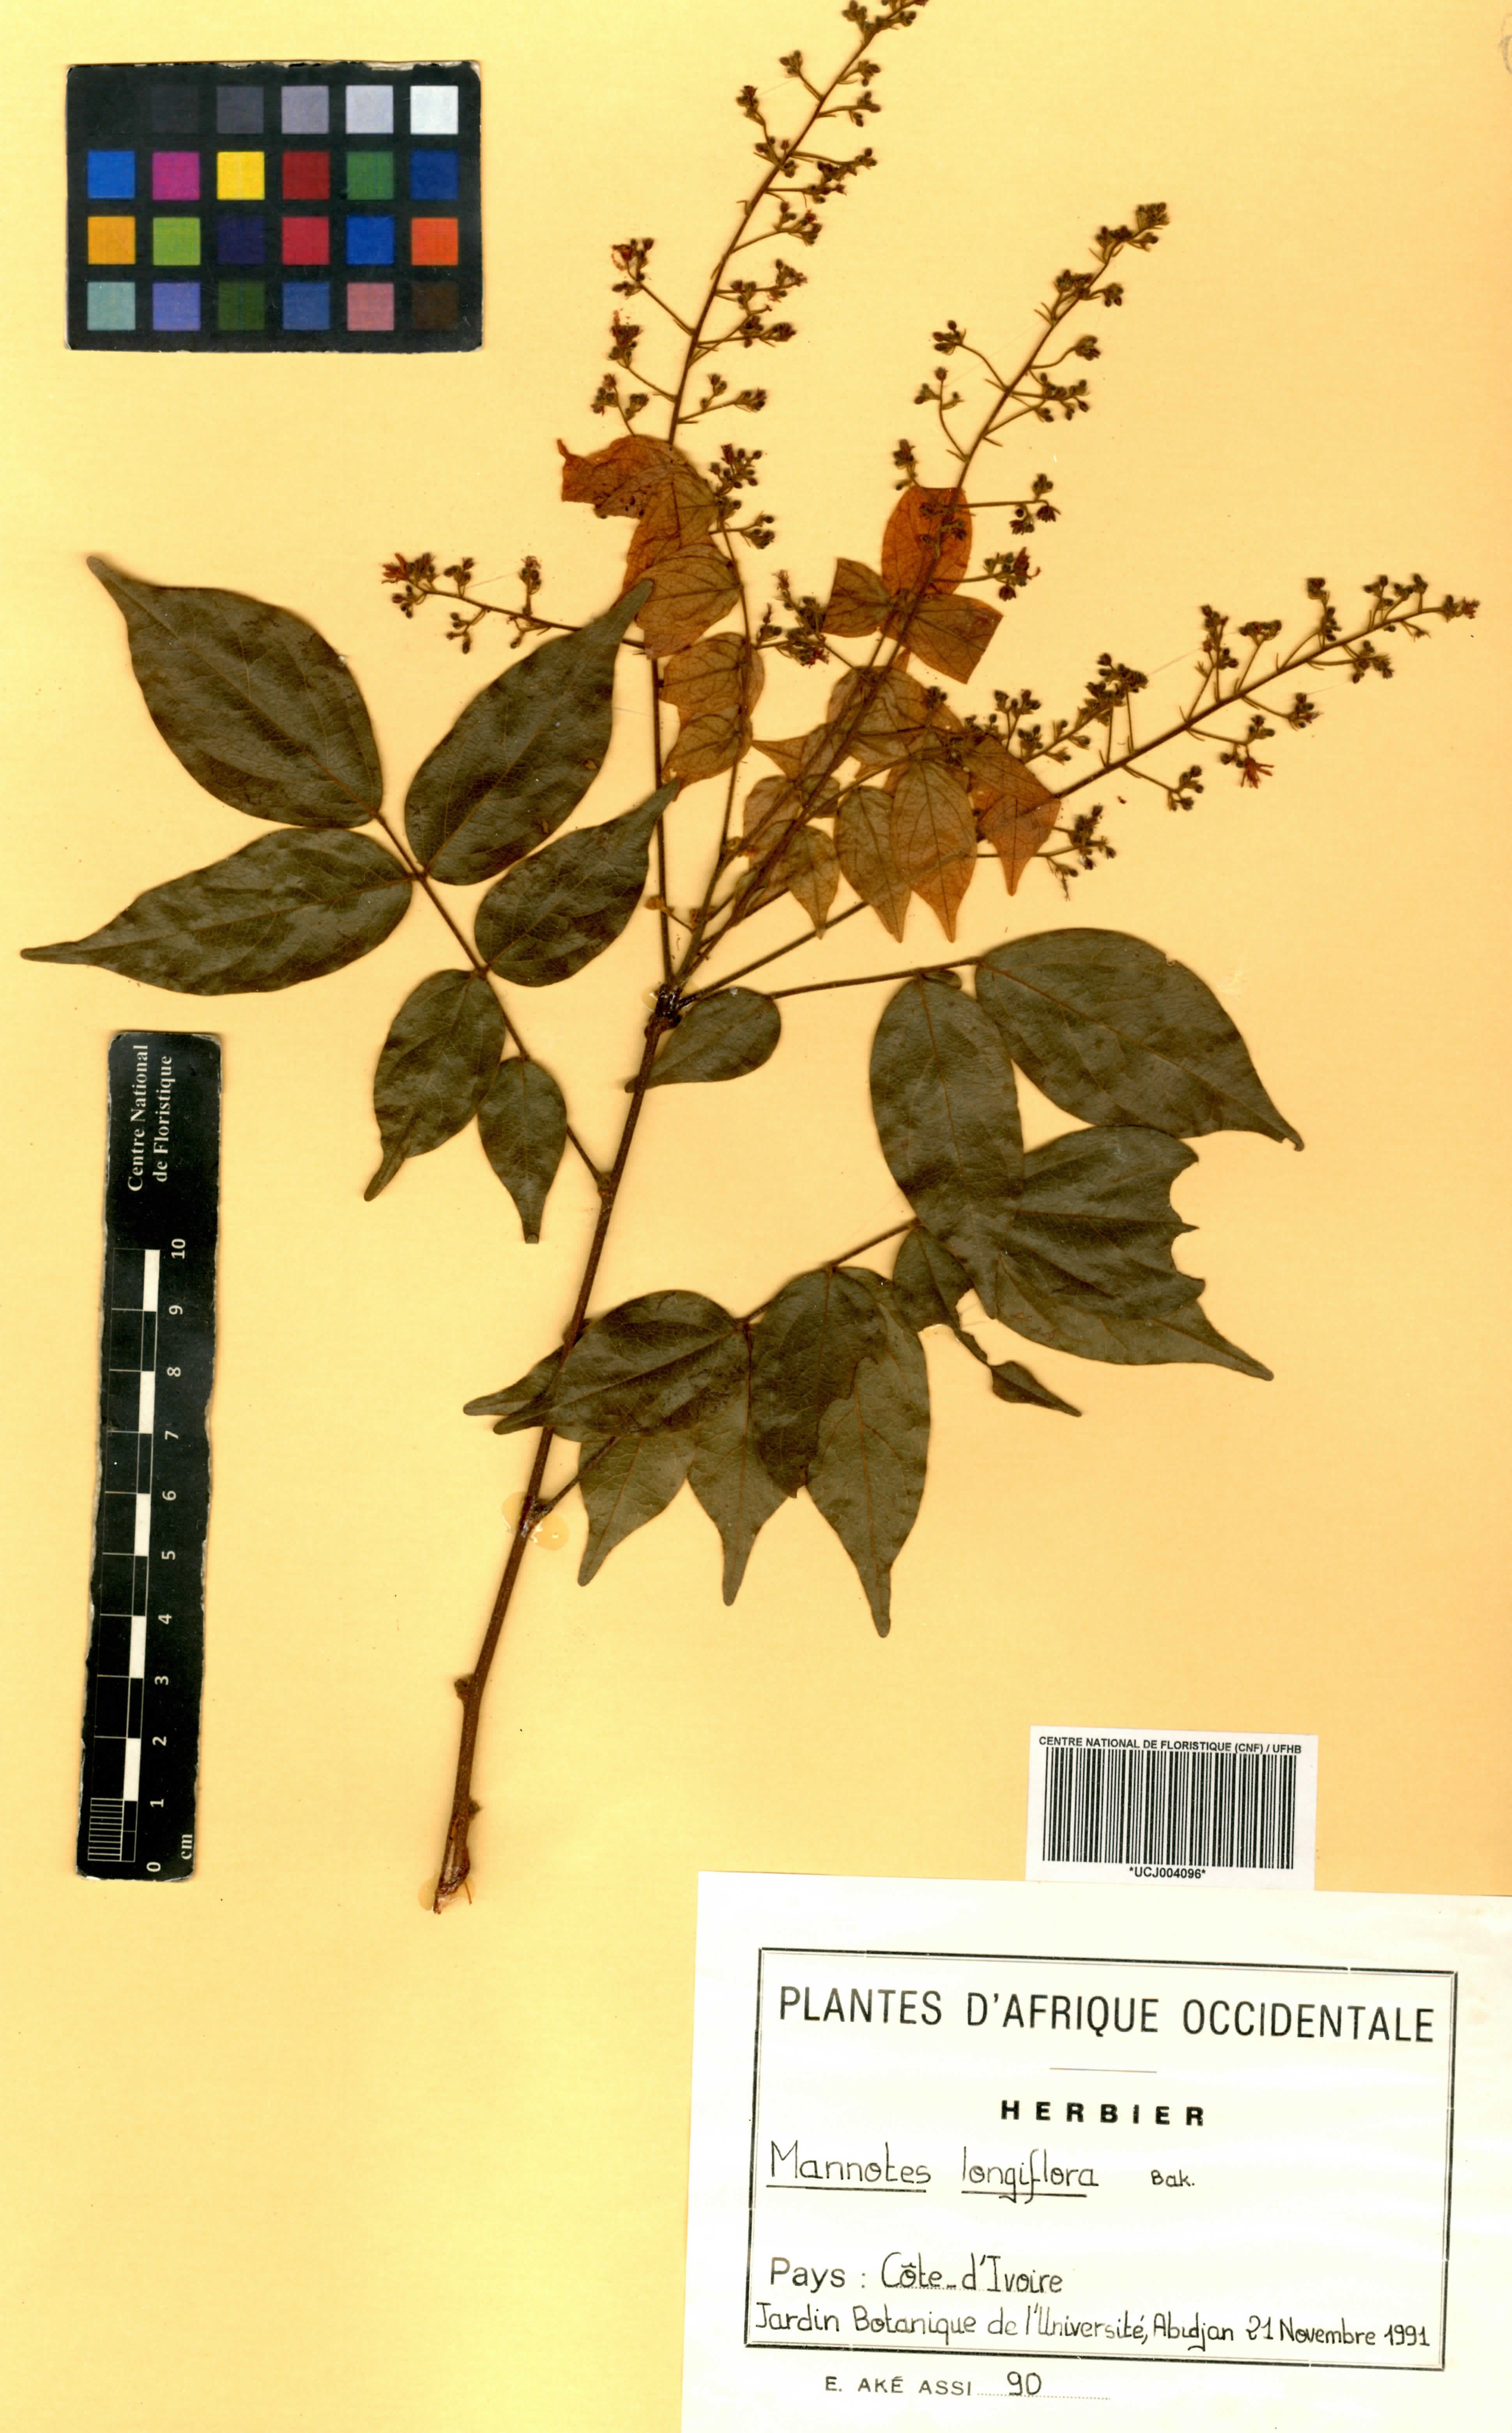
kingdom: Plantae
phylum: Tracheophyta
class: Magnoliopsida
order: Oxalidales
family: Connaraceae
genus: Manotes
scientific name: Manotes expansa
